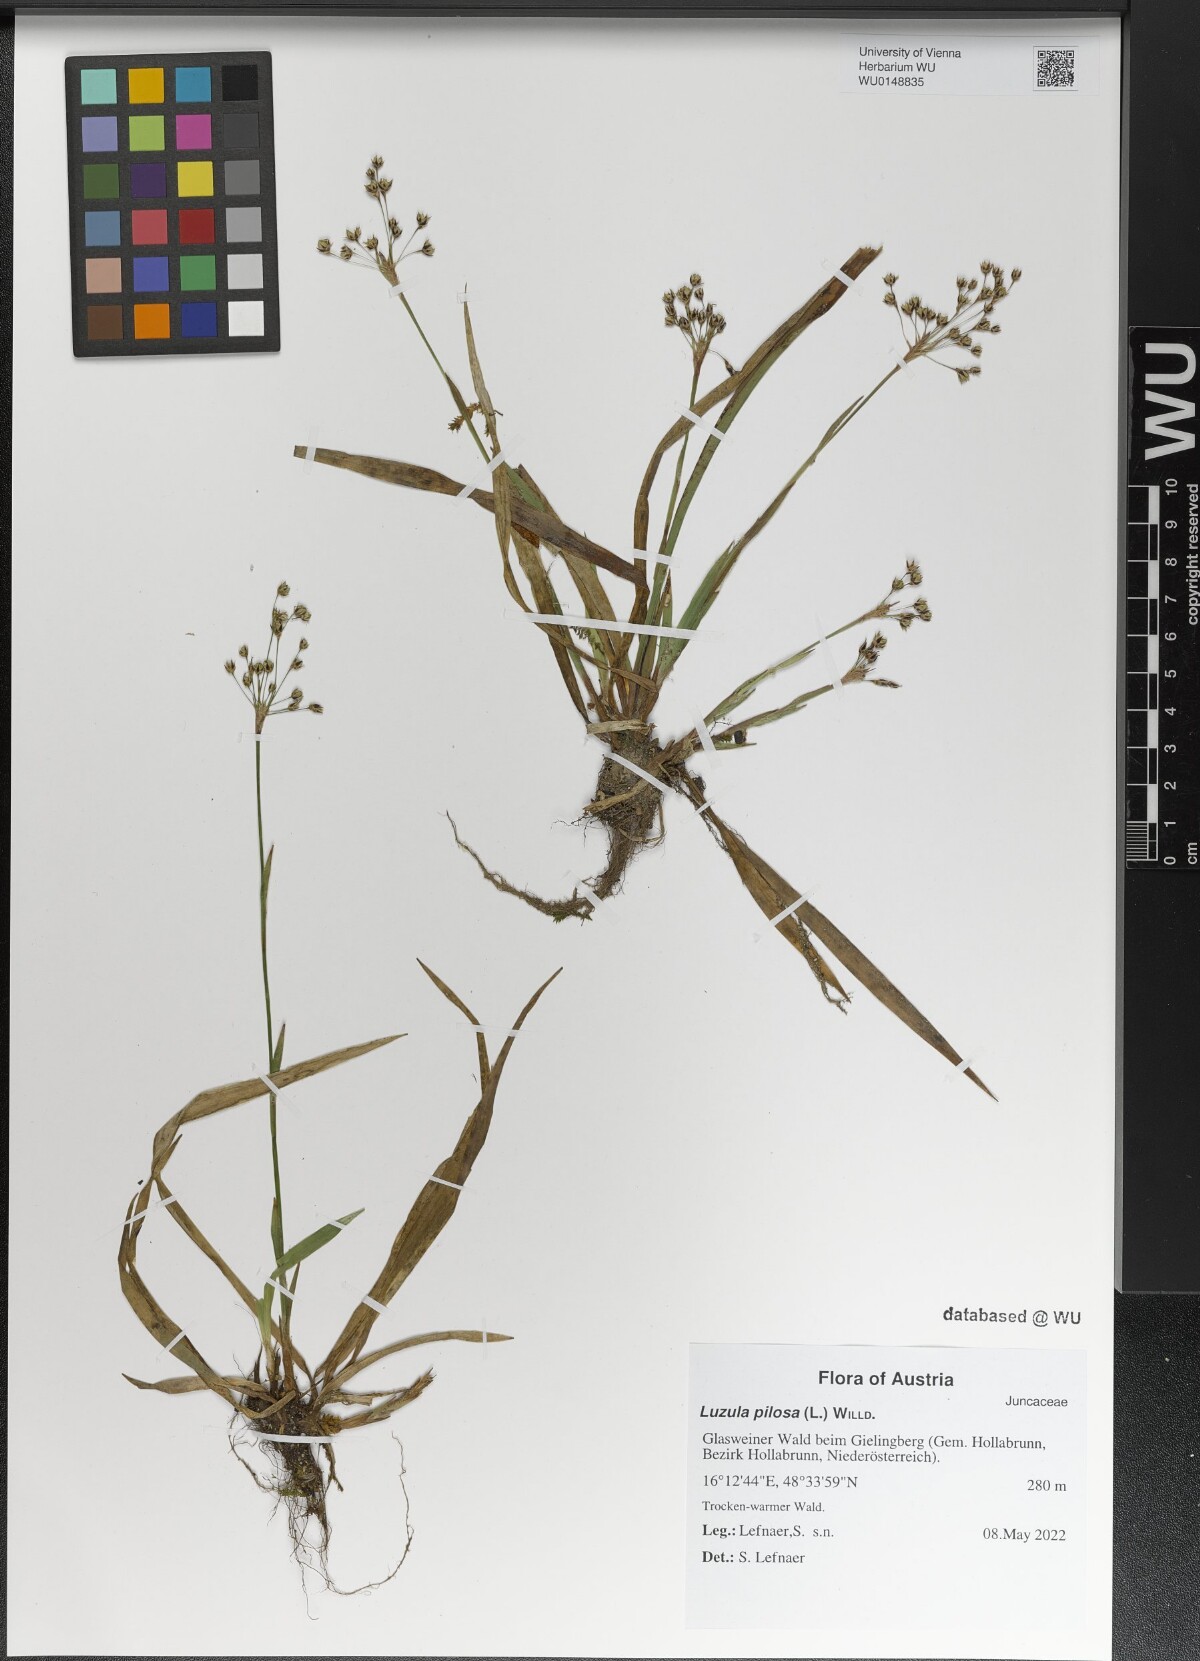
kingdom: Plantae
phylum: Tracheophyta
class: Liliopsida
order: Poales
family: Juncaceae
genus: Luzula
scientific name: Luzula pilosa
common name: Hairy wood-rush
